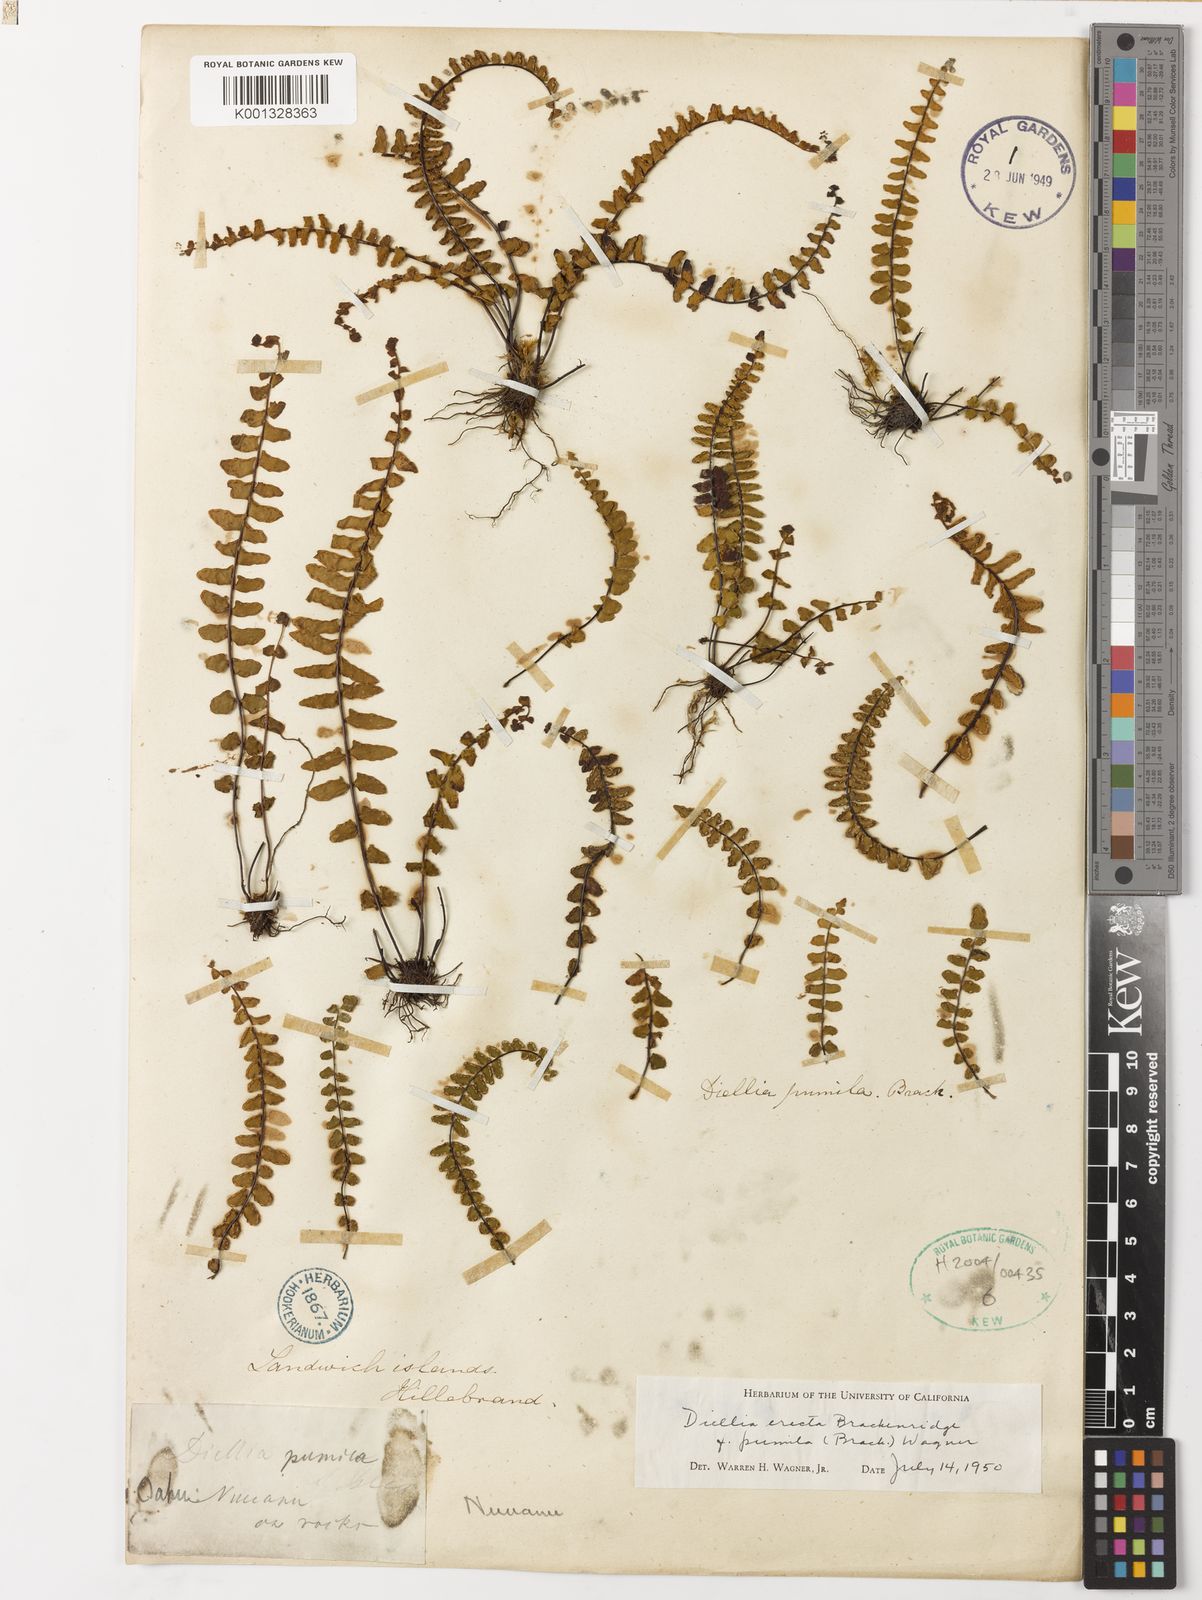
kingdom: Plantae
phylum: Tracheophyta
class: Polypodiopsida
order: Polypodiales
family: Aspleniaceae
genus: Asplenium
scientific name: Asplenium dielerectum
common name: Erect island spleenwort
